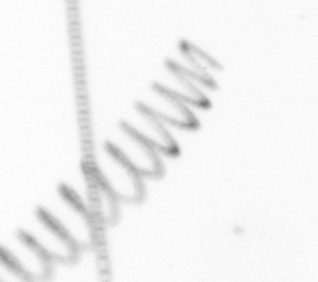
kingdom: Chromista
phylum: Ochrophyta
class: Bacillariophyceae
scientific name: Bacillariophyceae
